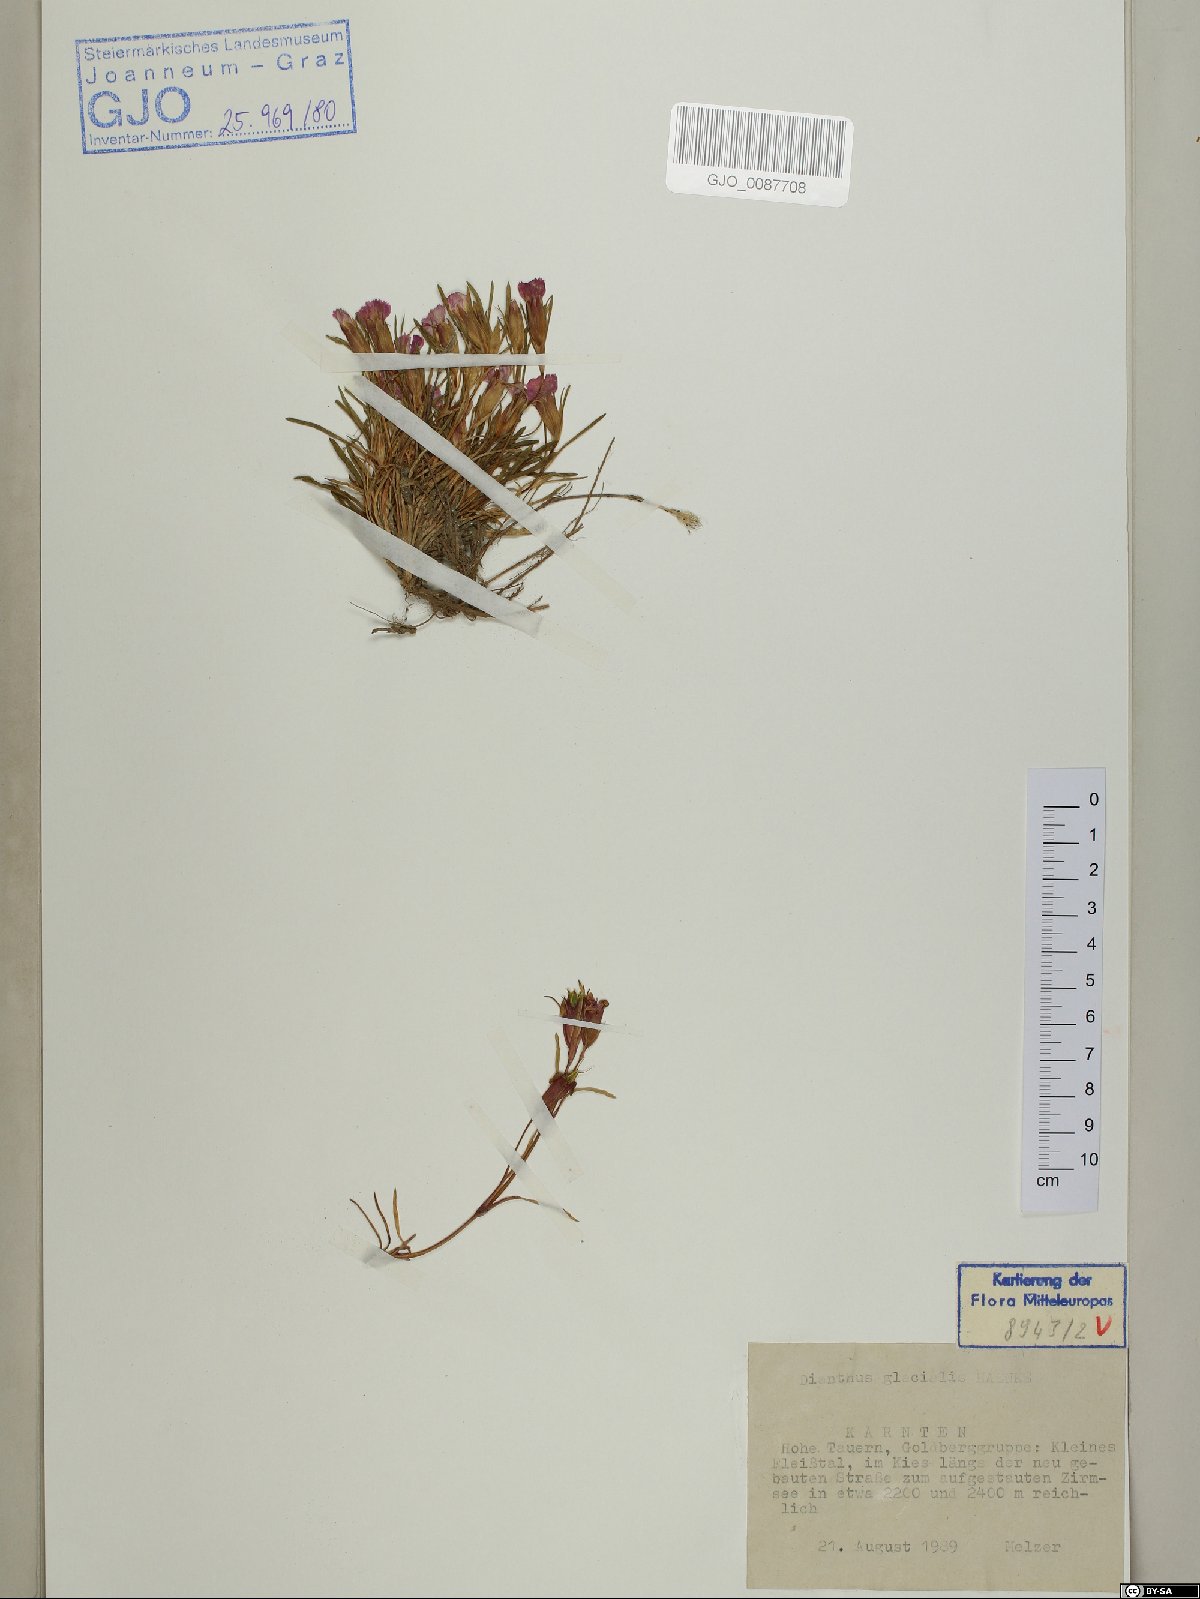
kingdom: Plantae
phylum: Tracheophyta
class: Magnoliopsida
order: Caryophyllales
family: Caryophyllaceae
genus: Dianthus
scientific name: Dianthus glacialis
